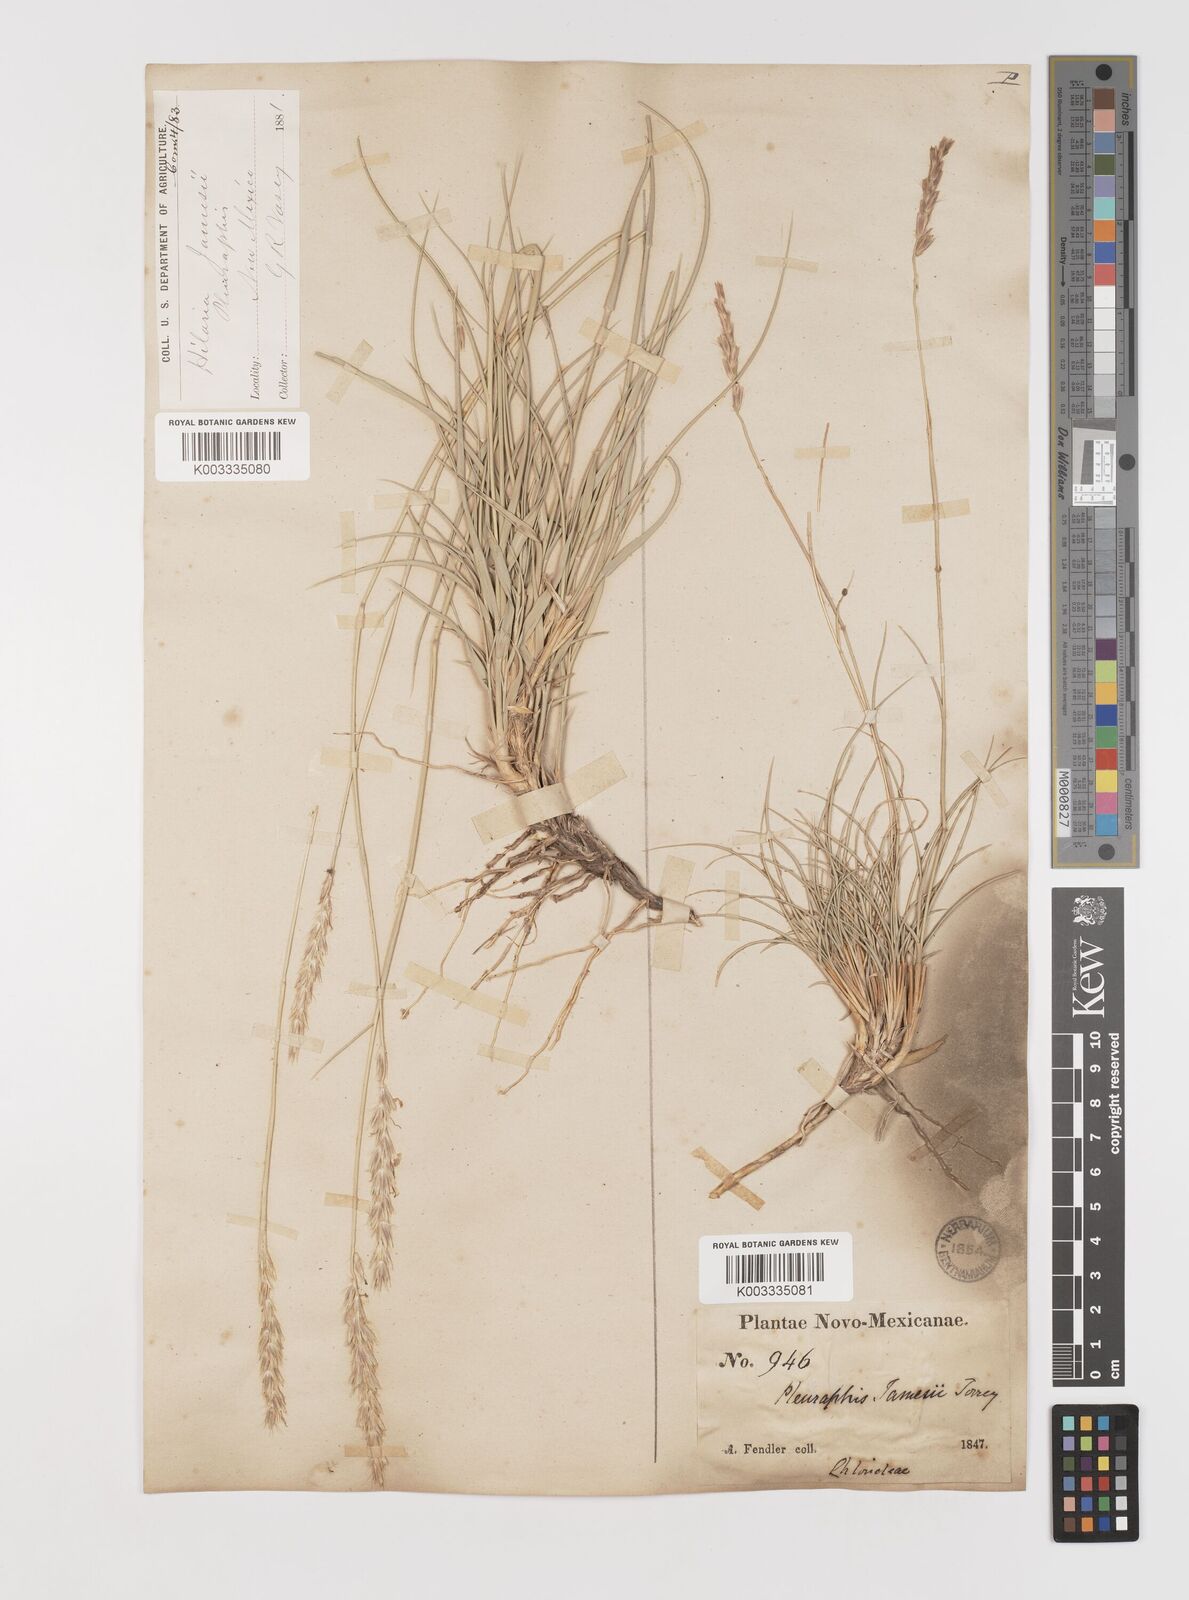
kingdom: Plantae
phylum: Tracheophyta
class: Liliopsida
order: Poales
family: Poaceae
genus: Hilaria
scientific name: Hilaria jamesii
